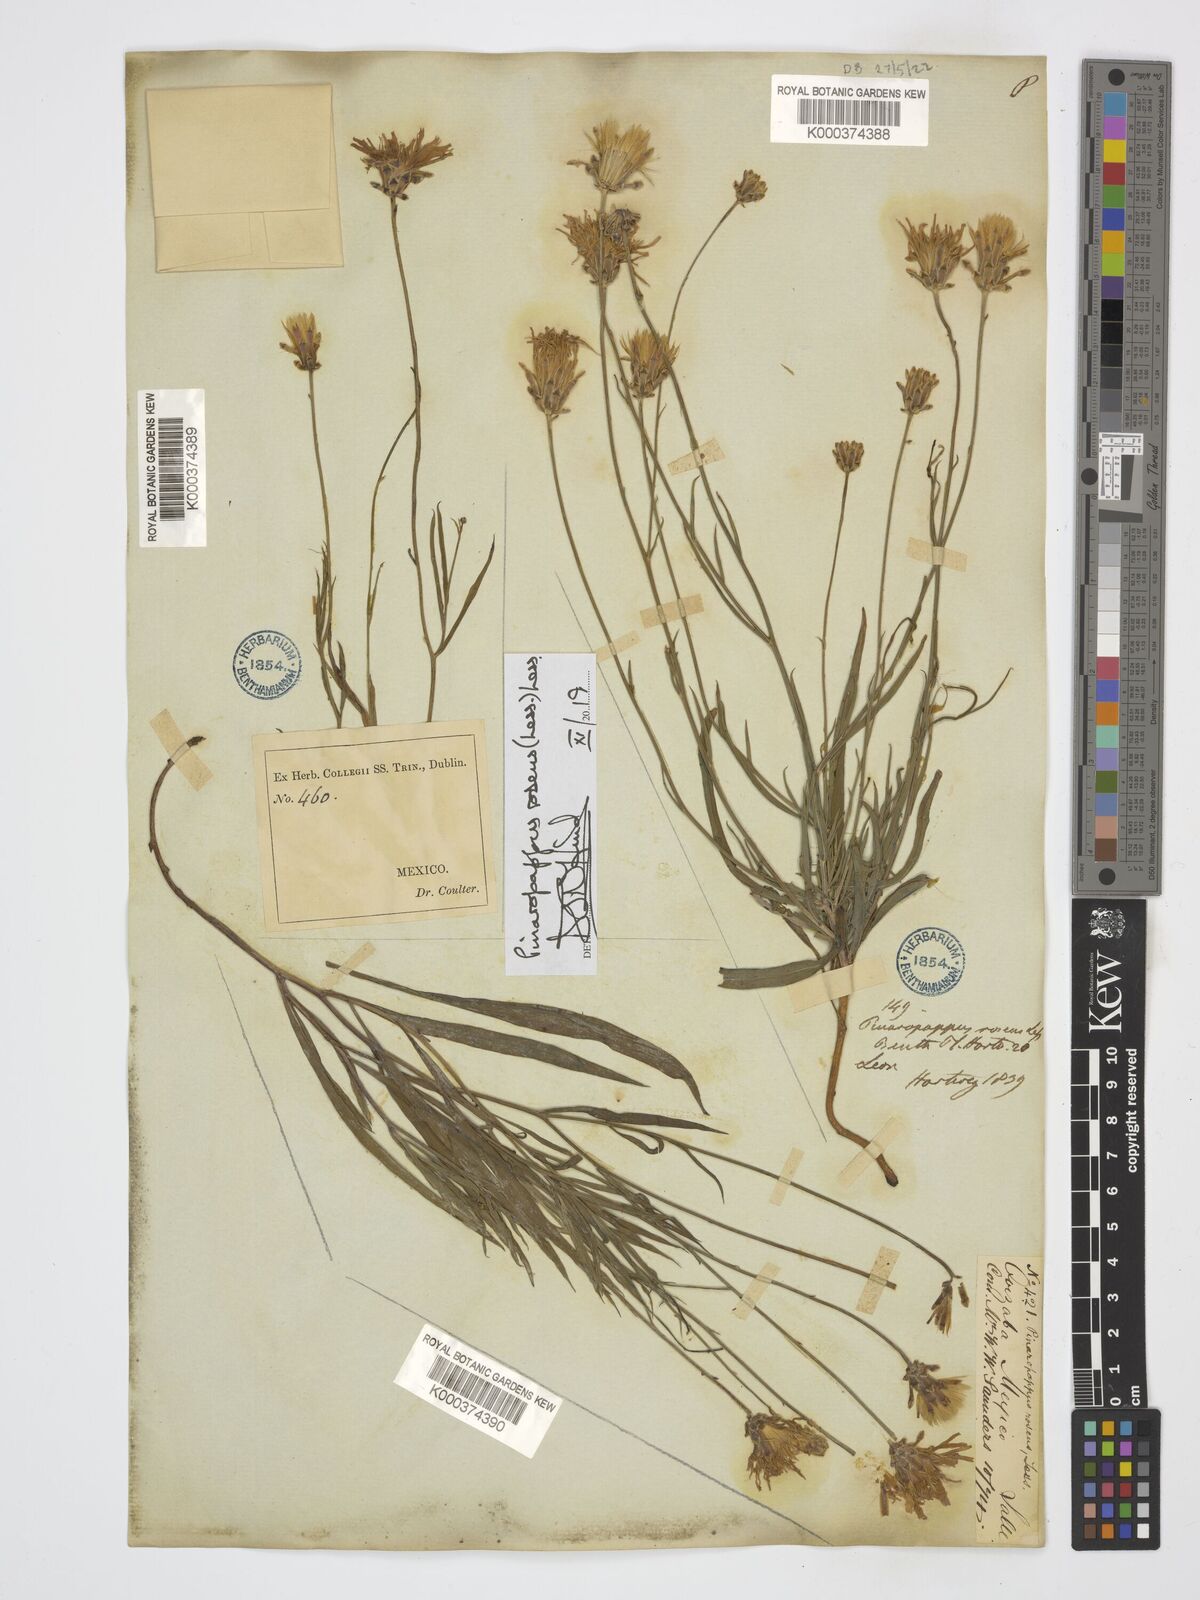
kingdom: Plantae
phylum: Tracheophyta
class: Magnoliopsida
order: Asterales
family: Asteraceae
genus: Pinaropappus
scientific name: Pinaropappus roseus
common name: Rock-lettuce
